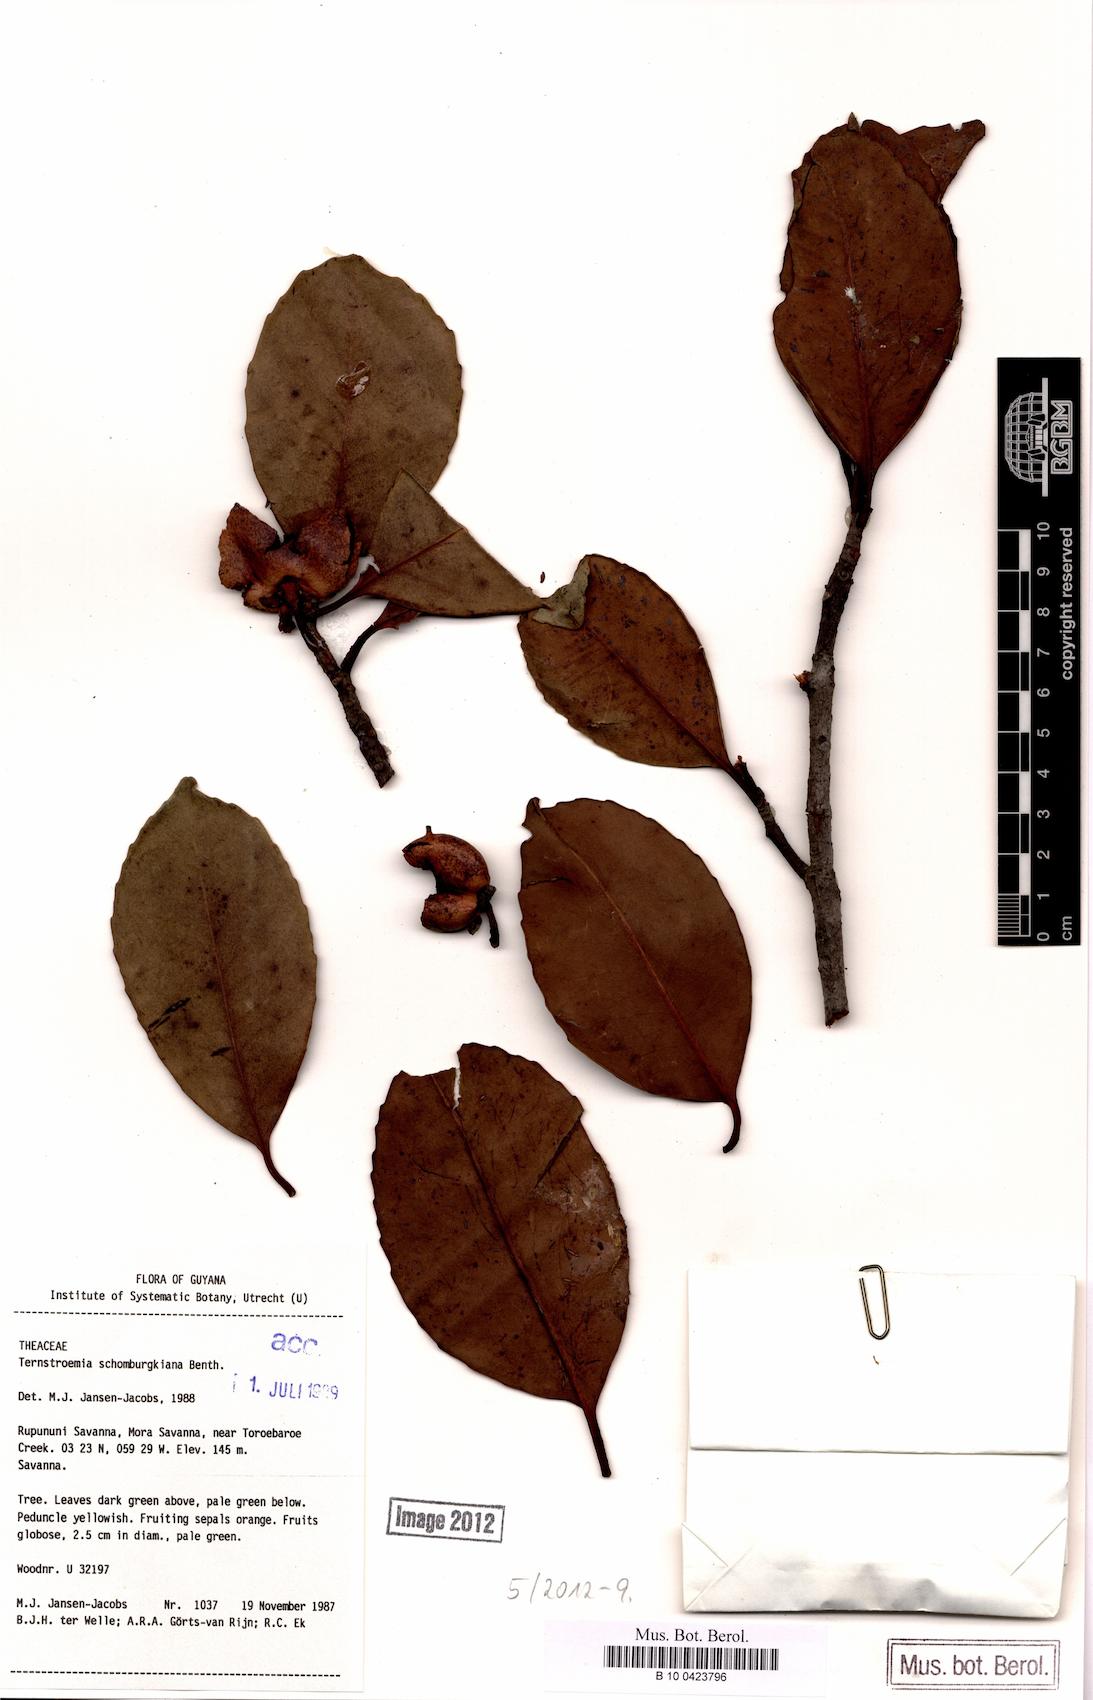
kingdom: Plantae
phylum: Tracheophyta
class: Magnoliopsida
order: Ericales
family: Pentaphylacaceae
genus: Ternstroemia
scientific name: Ternstroemia schomburgkiana
